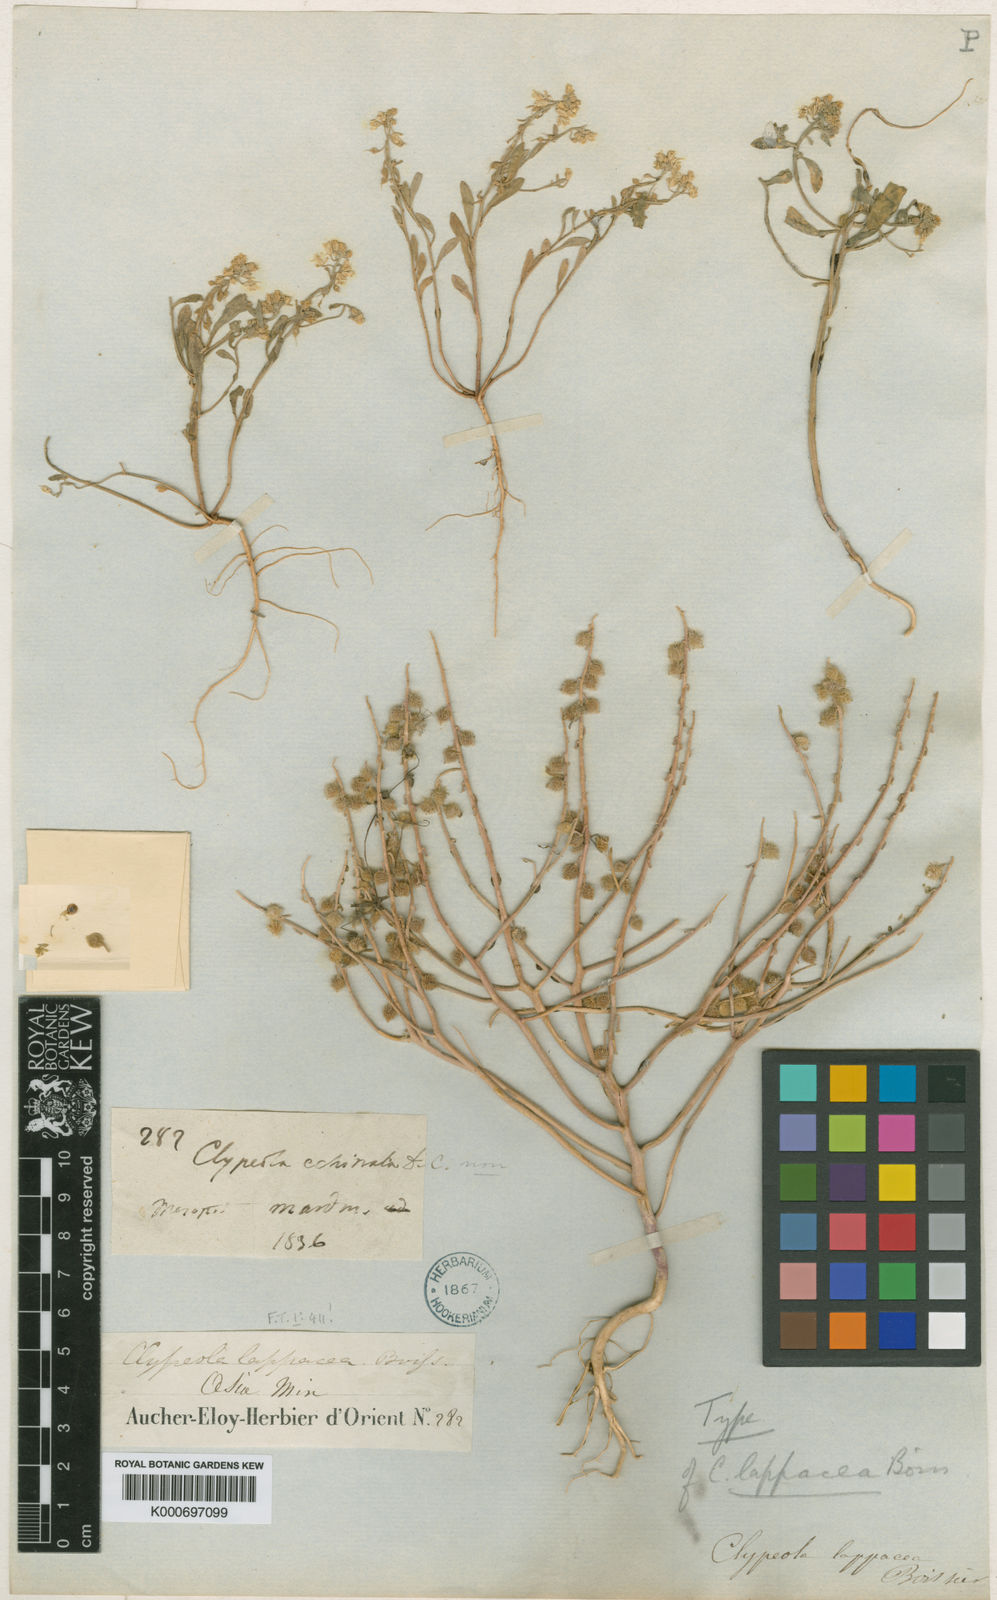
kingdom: Plantae
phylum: Tracheophyta
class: Magnoliopsida
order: Brassicales
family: Brassicaceae
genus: Clypeola
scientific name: Clypeola lappacea
